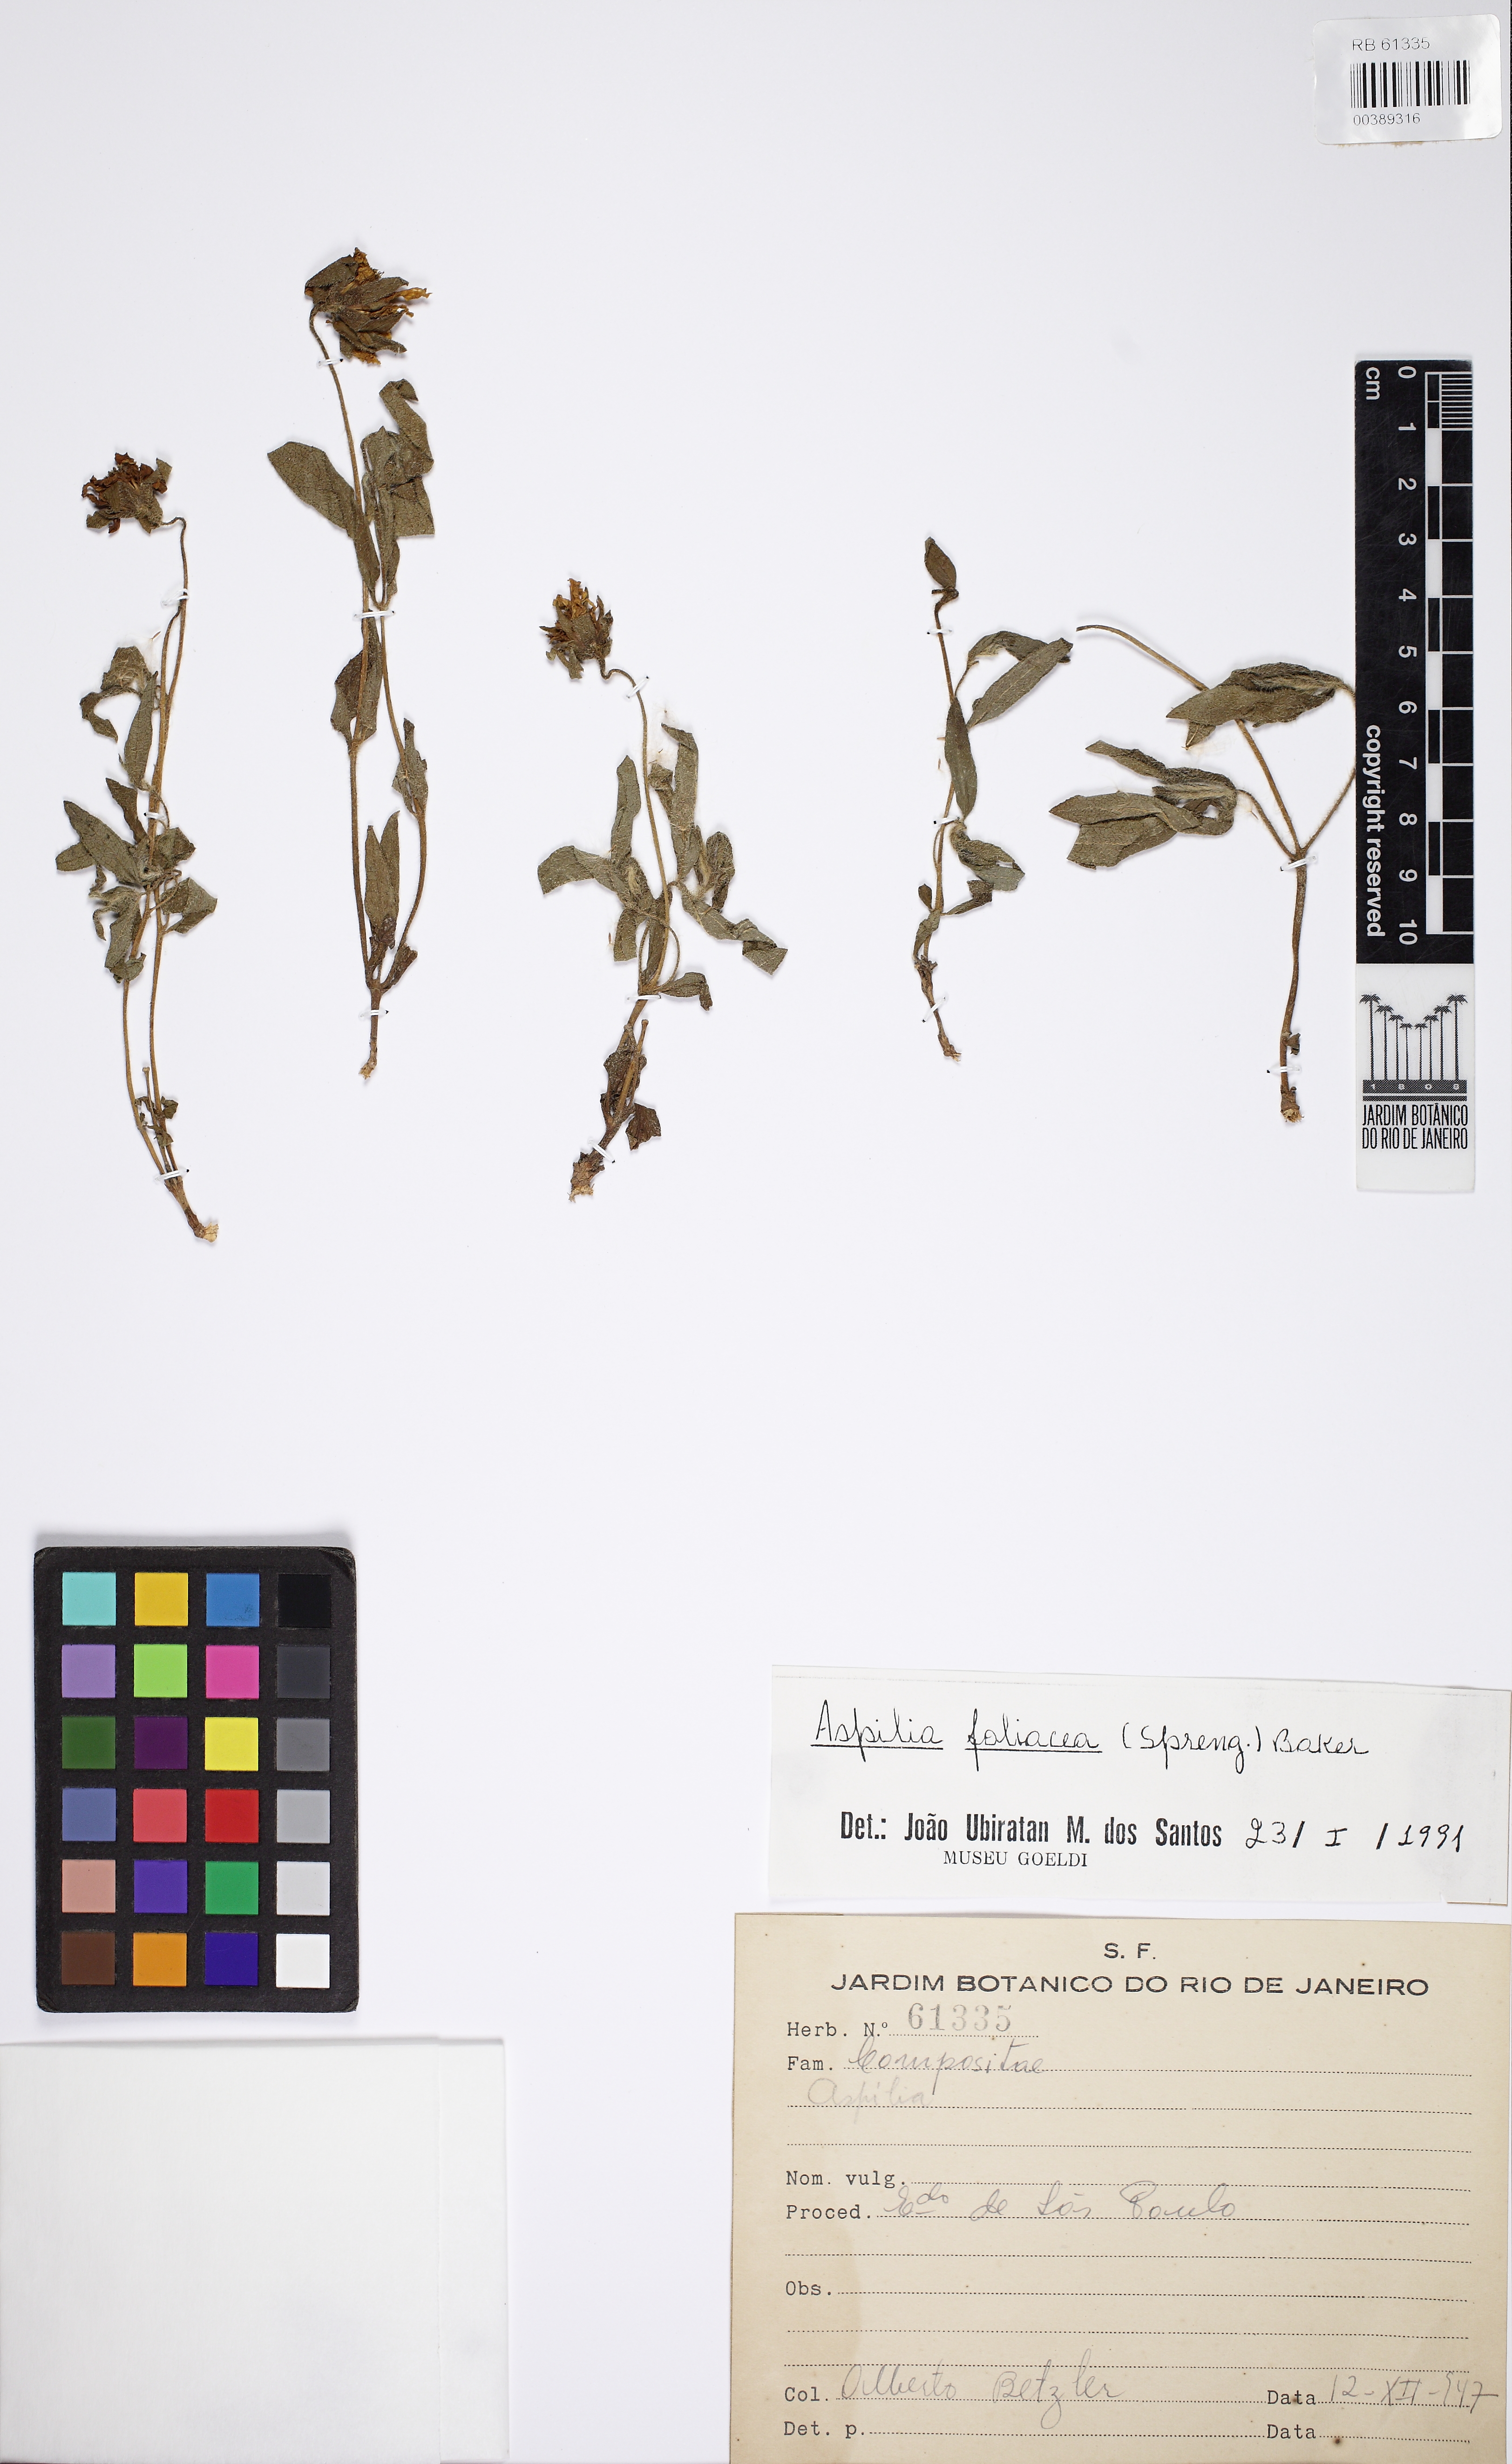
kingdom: Plantae
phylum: Tracheophyta
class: Magnoliopsida
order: Asterales
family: Asteraceae
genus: Wedelia
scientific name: Wedelia foliacea
